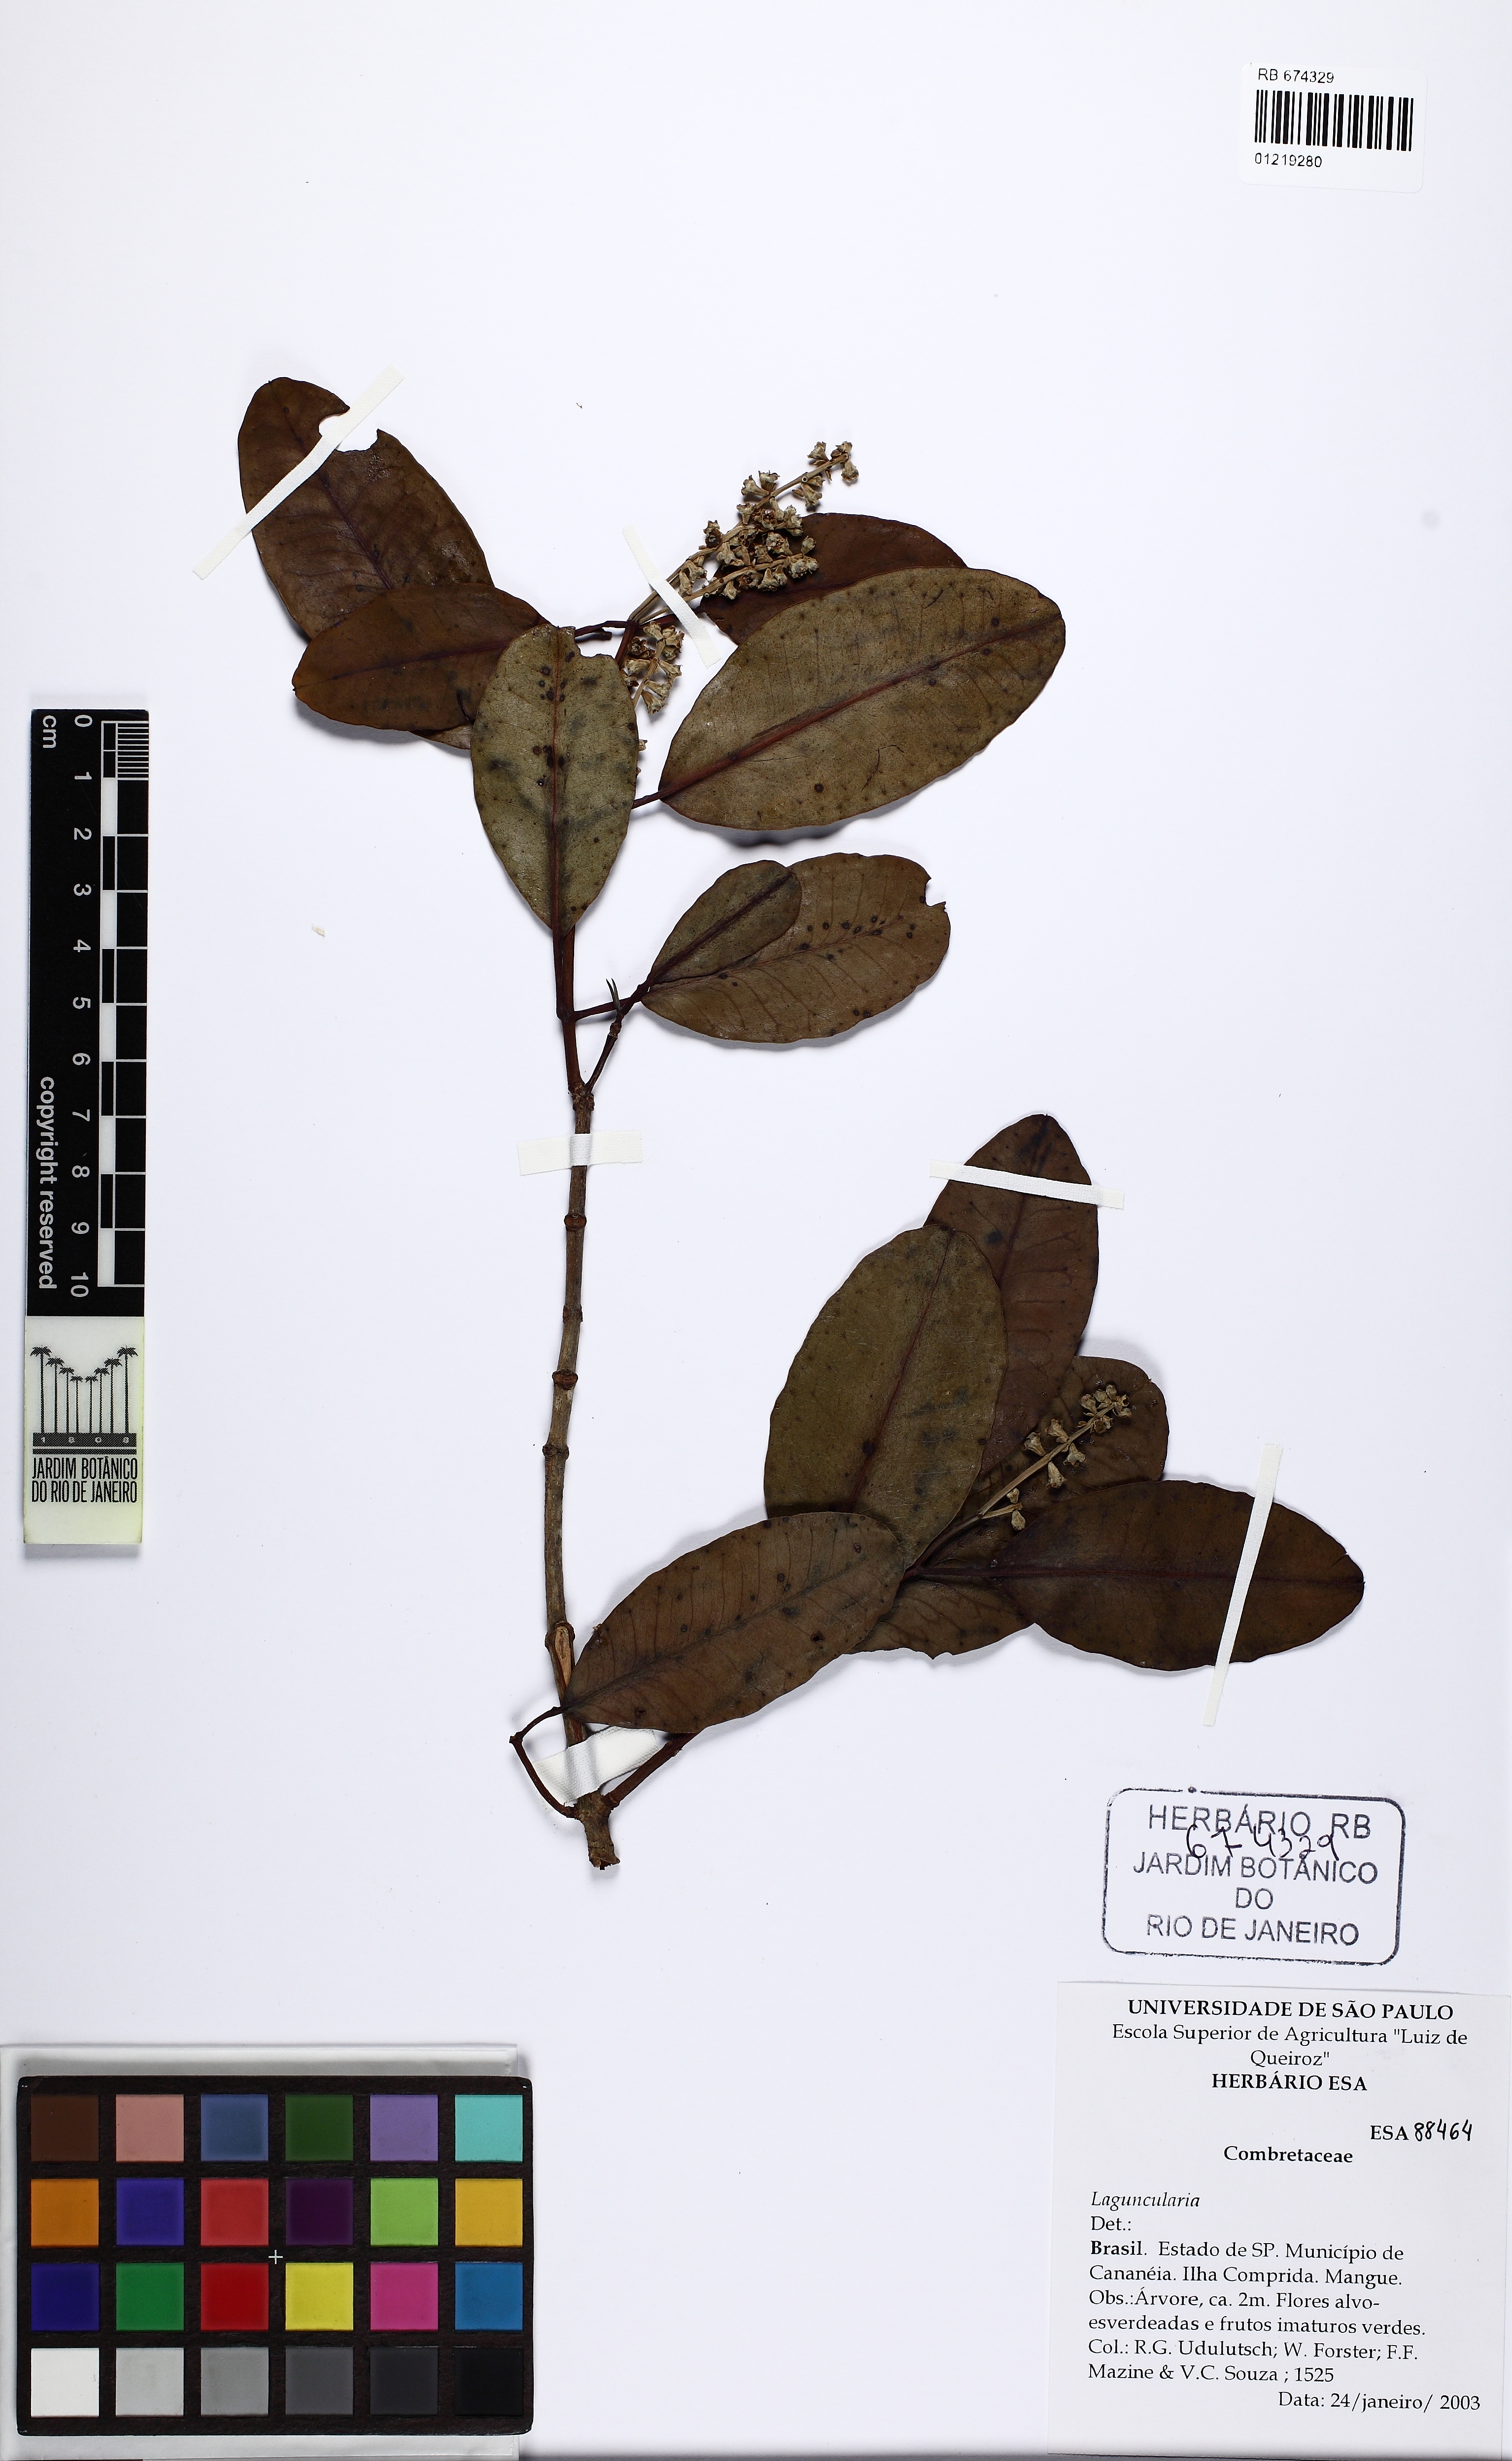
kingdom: Plantae
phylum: Tracheophyta
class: Magnoliopsida
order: Myrtales
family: Combretaceae
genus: Laguncularia
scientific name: Laguncularia
